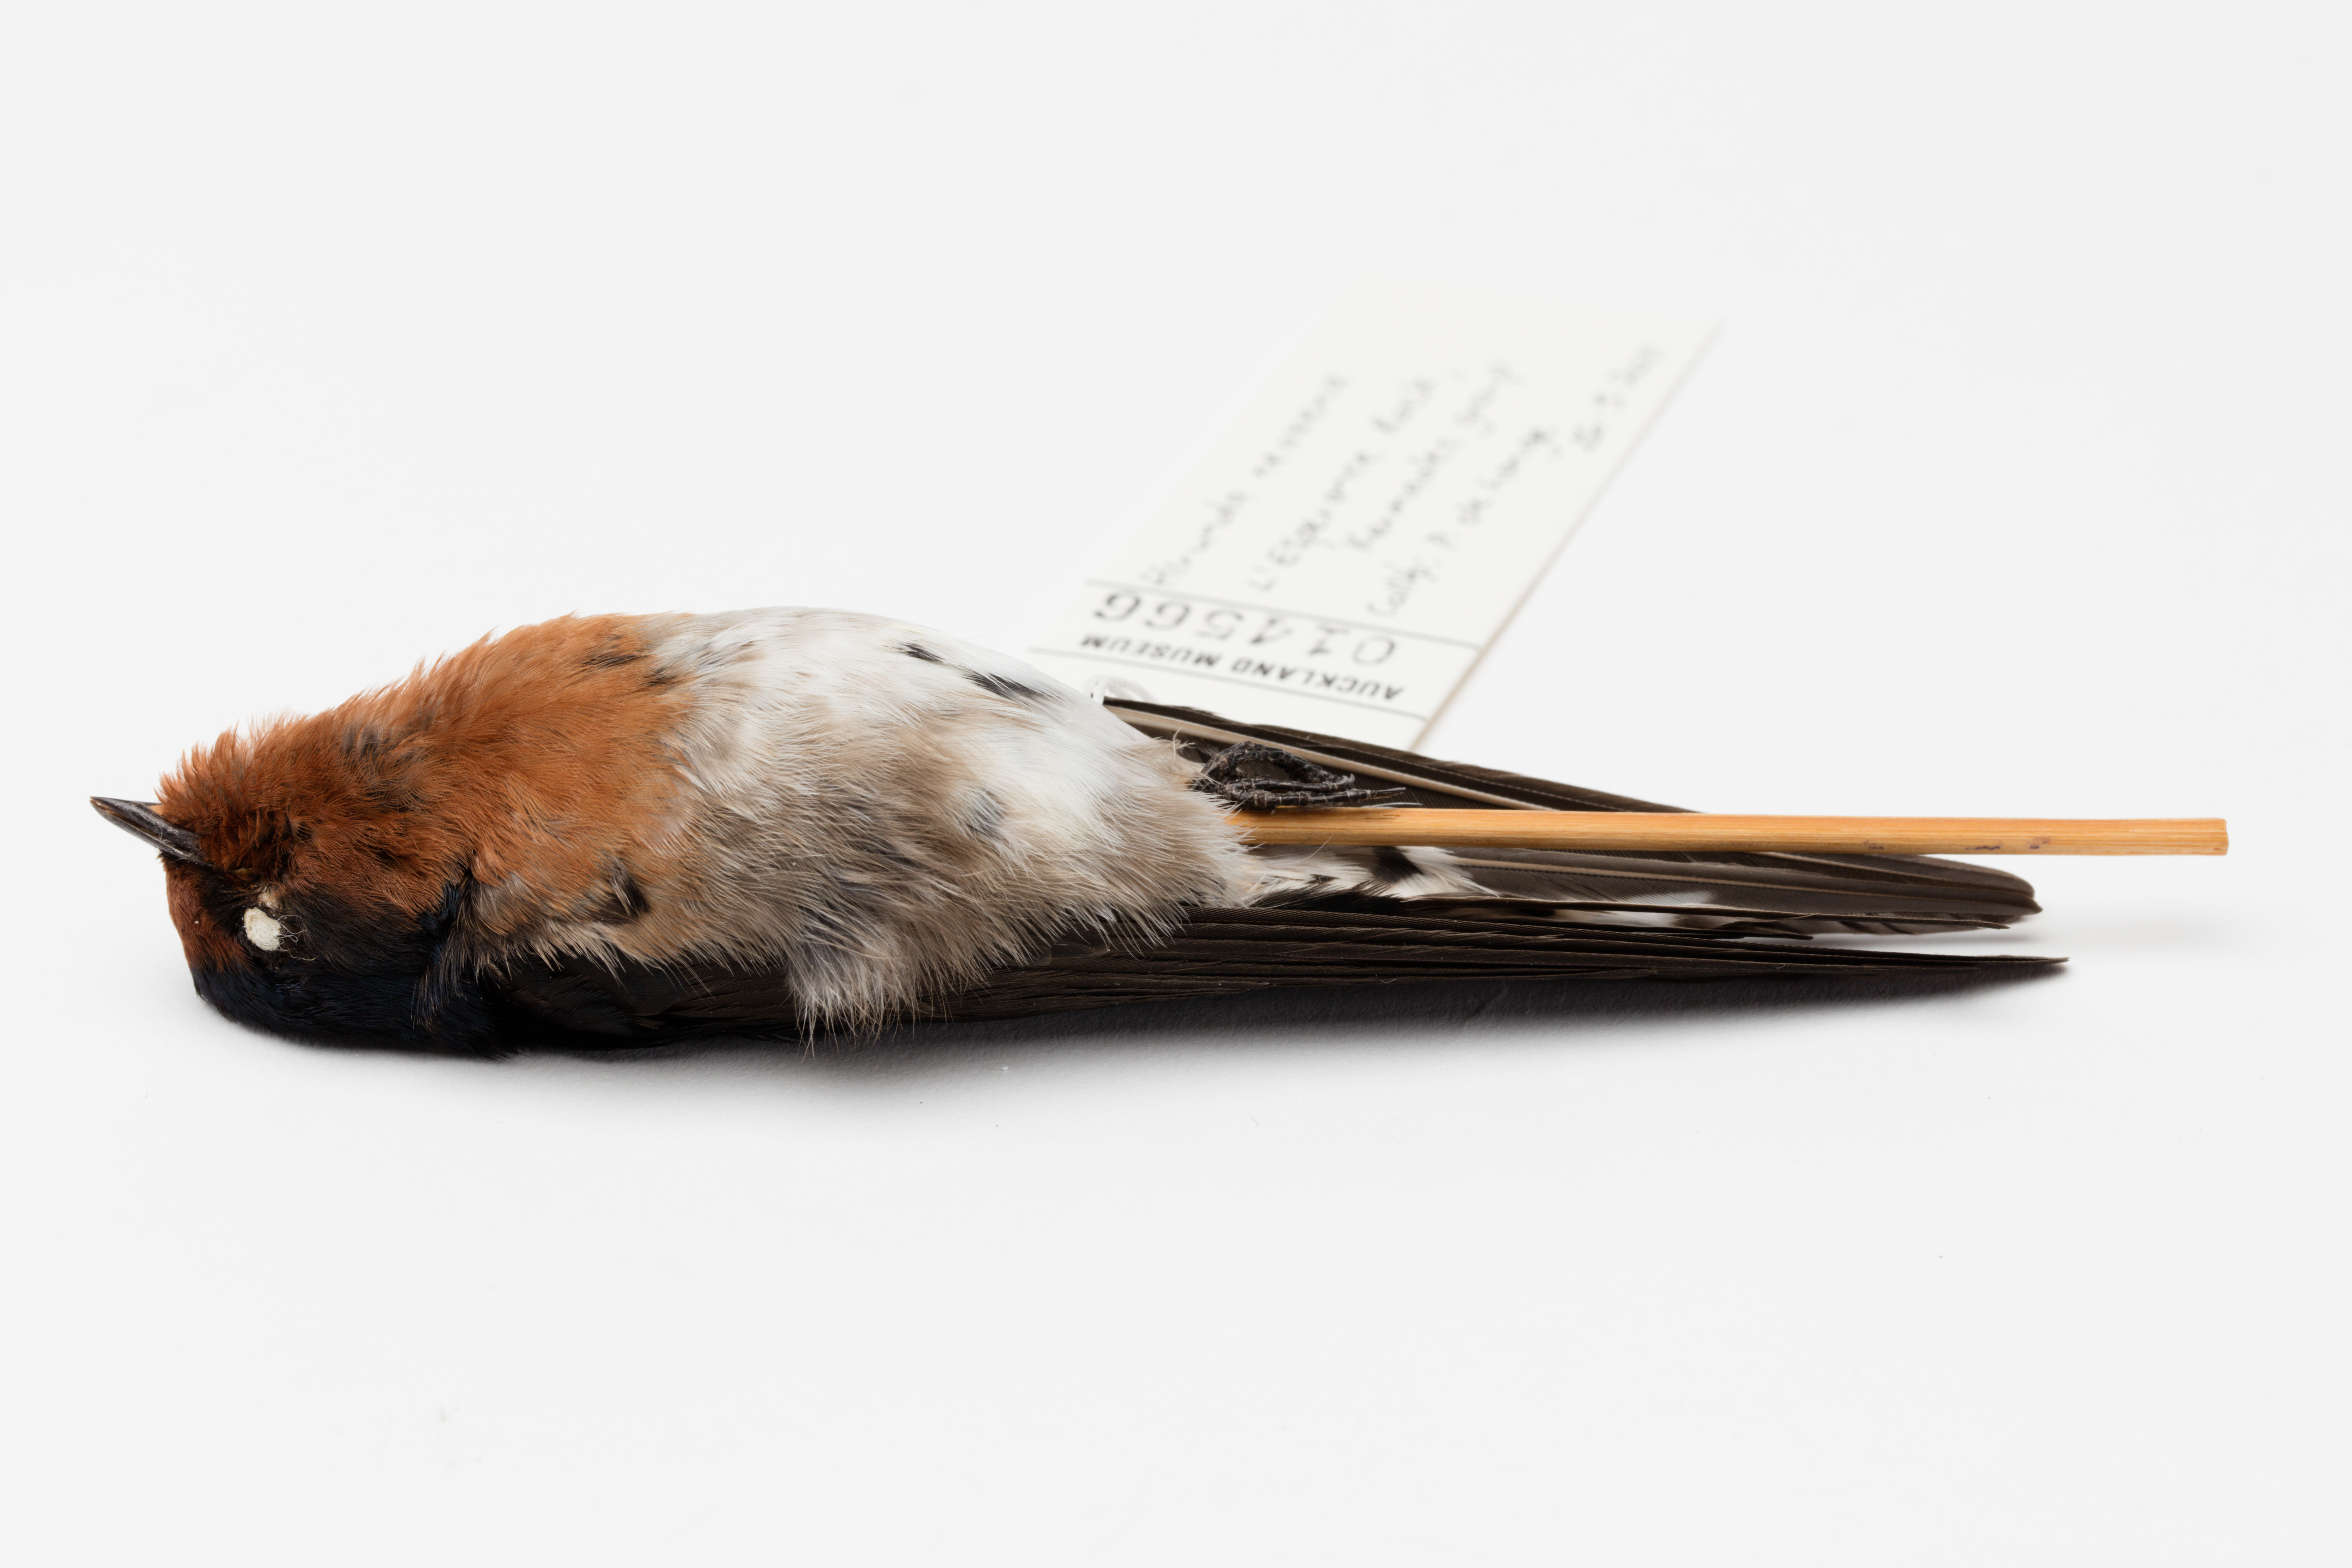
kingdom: Animalia
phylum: Chordata
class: Aves
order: Passeriformes
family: Hirundinidae
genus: Hirundo
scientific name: Hirundo neoxena
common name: Welcome swallow
